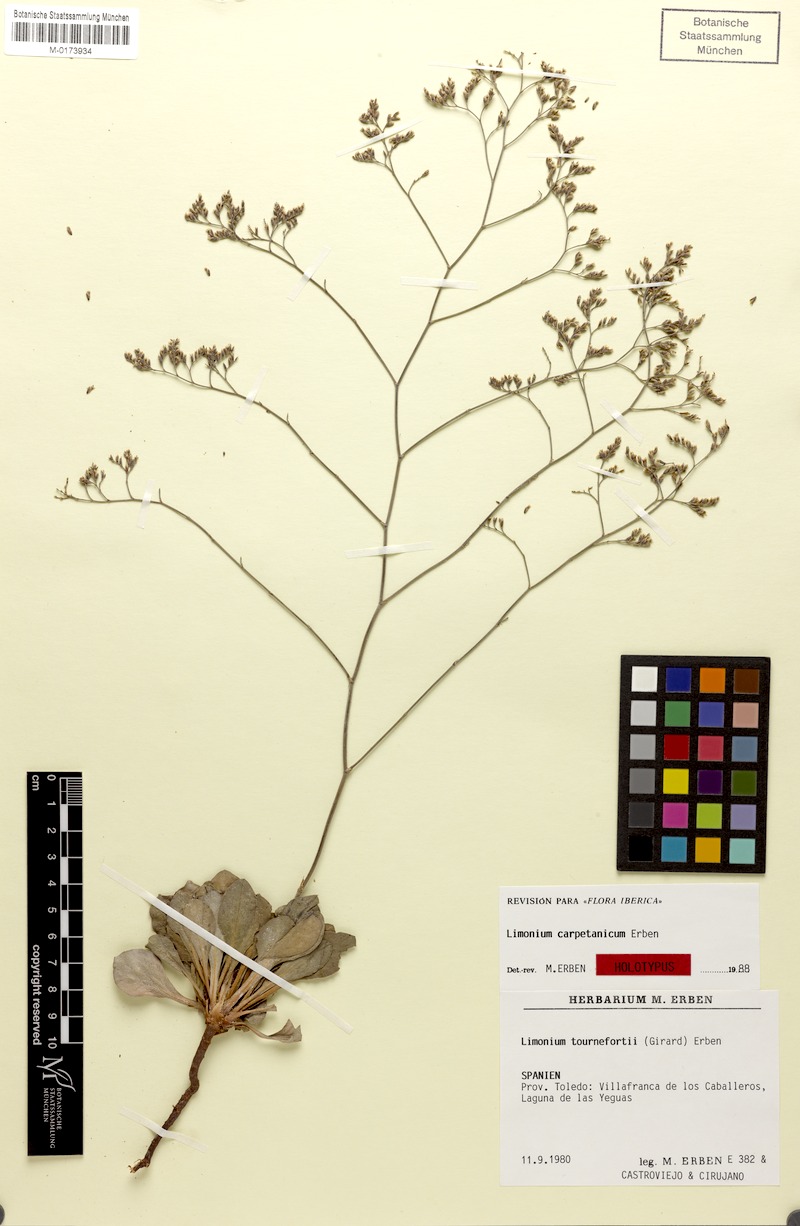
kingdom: Plantae
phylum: Tracheophyta
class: Magnoliopsida
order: Caryophyllales
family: Plumbaginaceae
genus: Limonium
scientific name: Limonium carpetanicum
